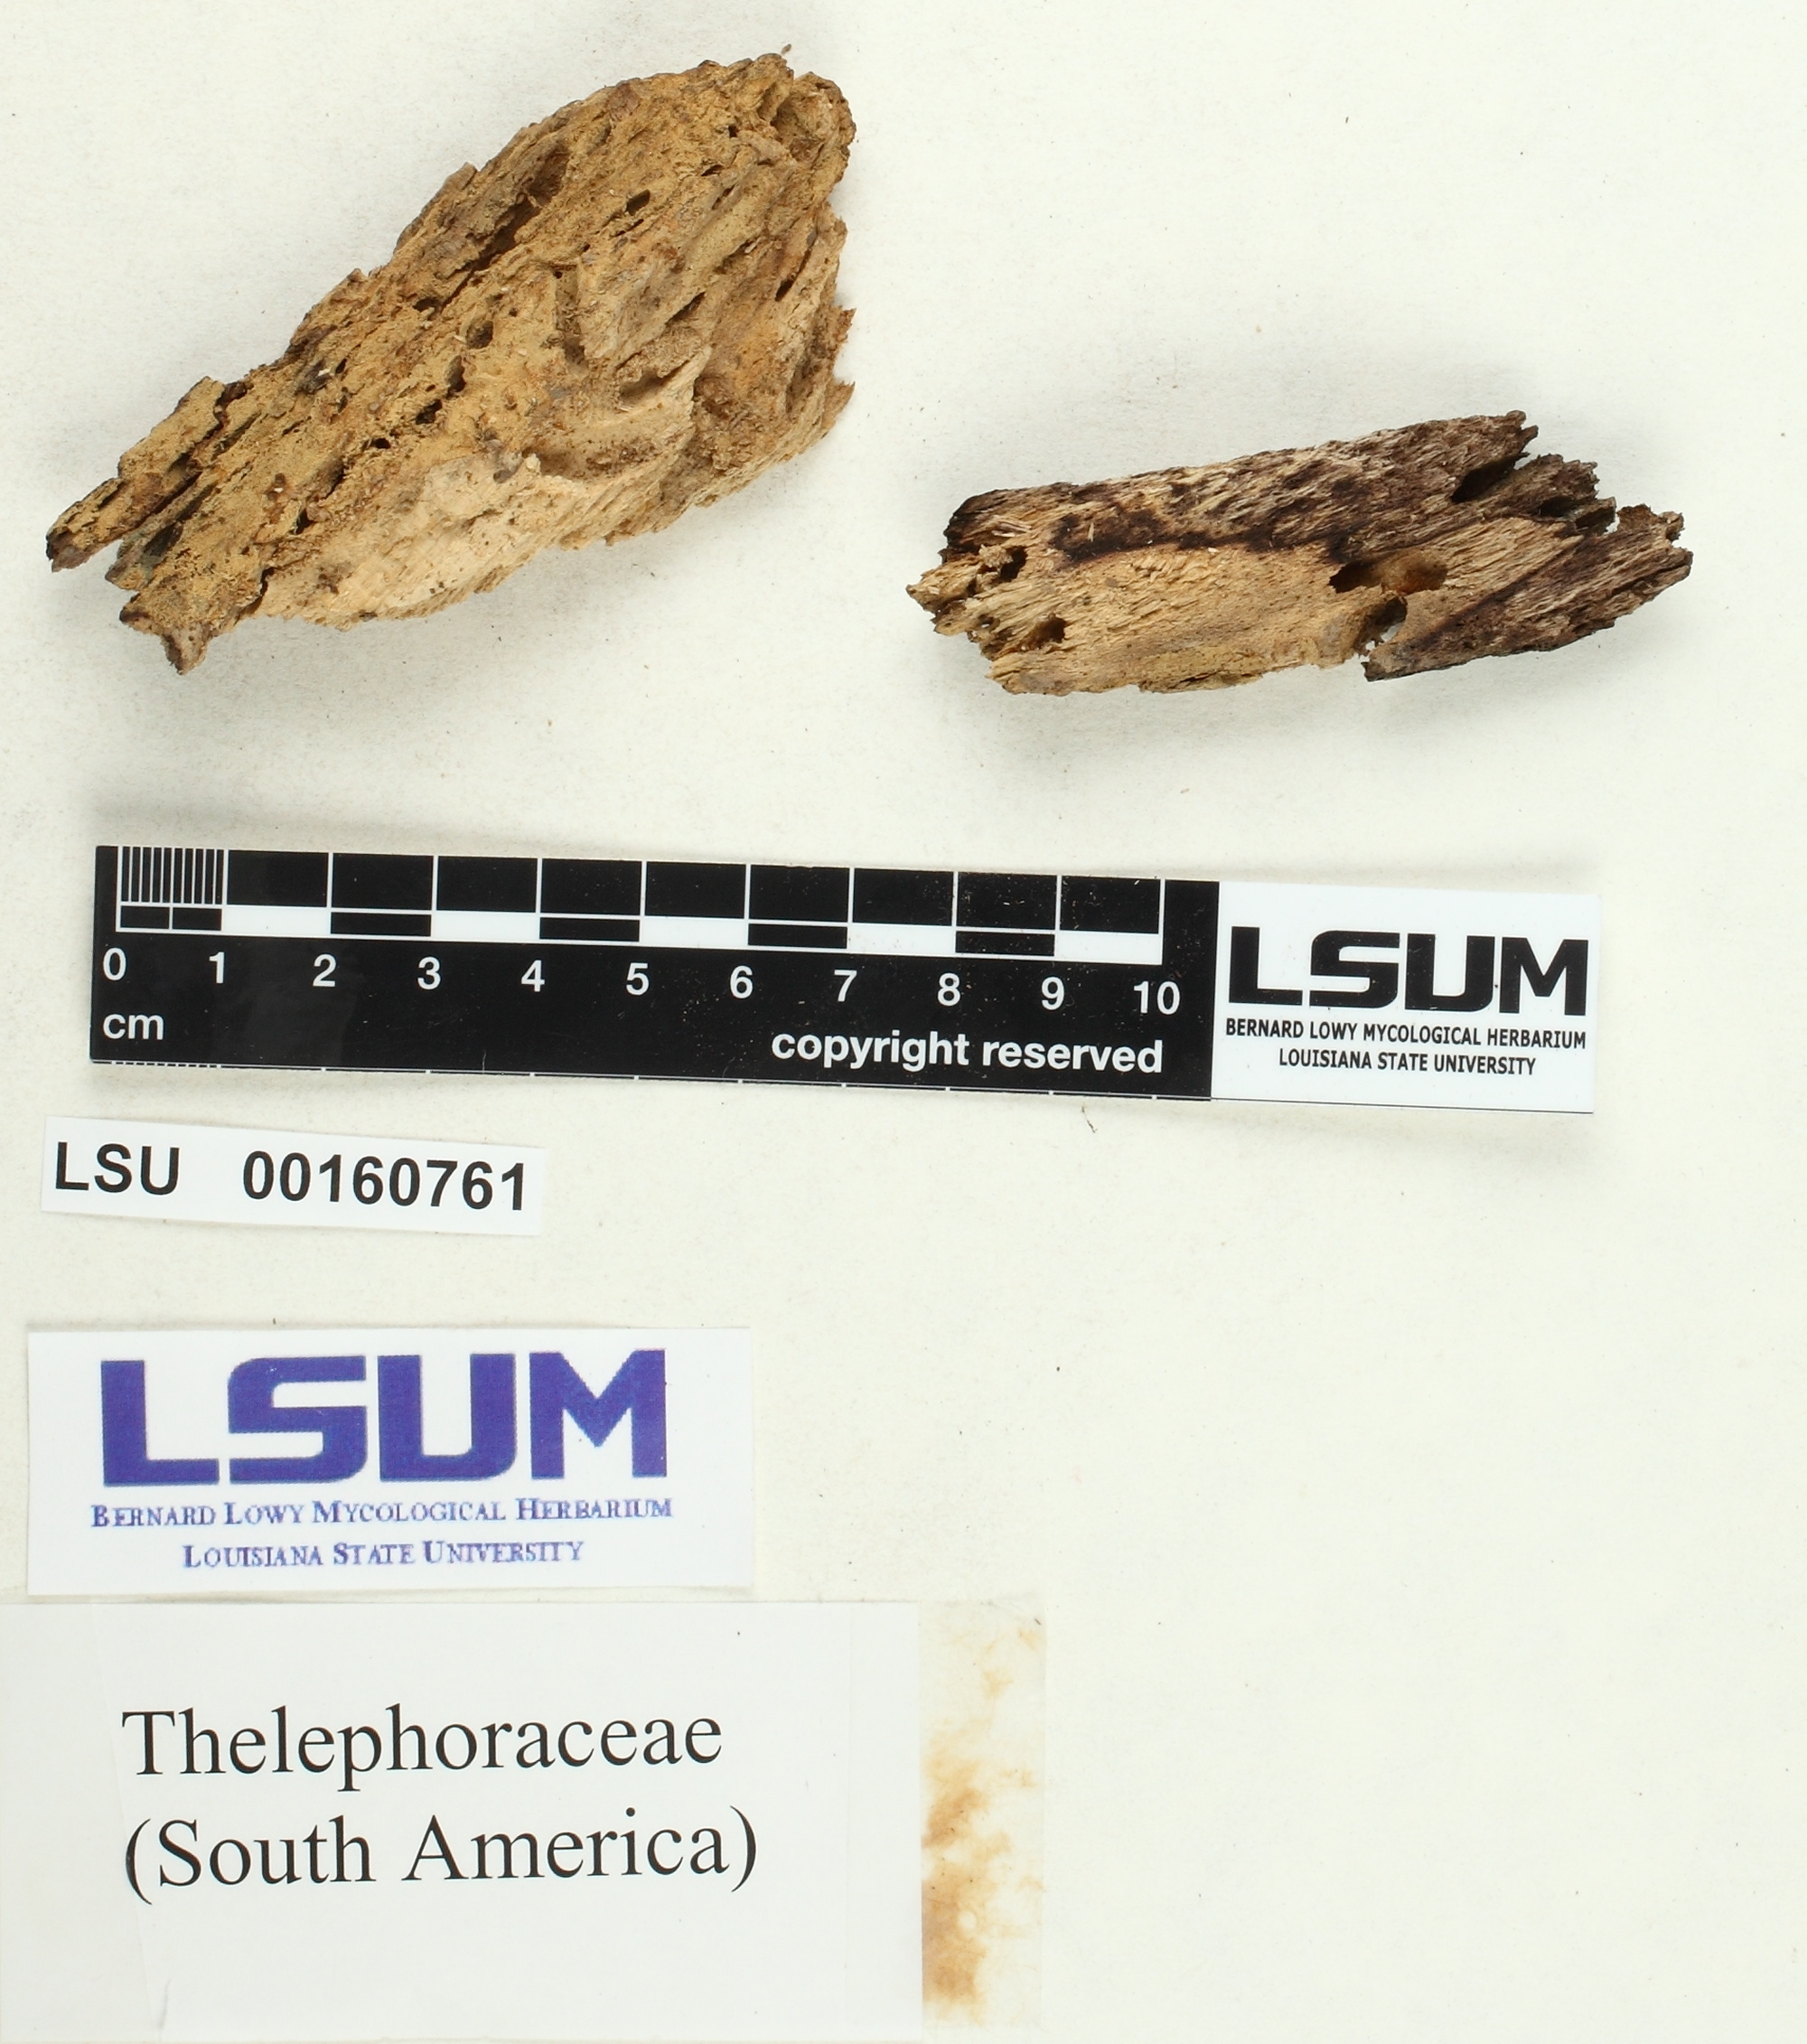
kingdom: Fungi
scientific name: Fungi
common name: Fungi
